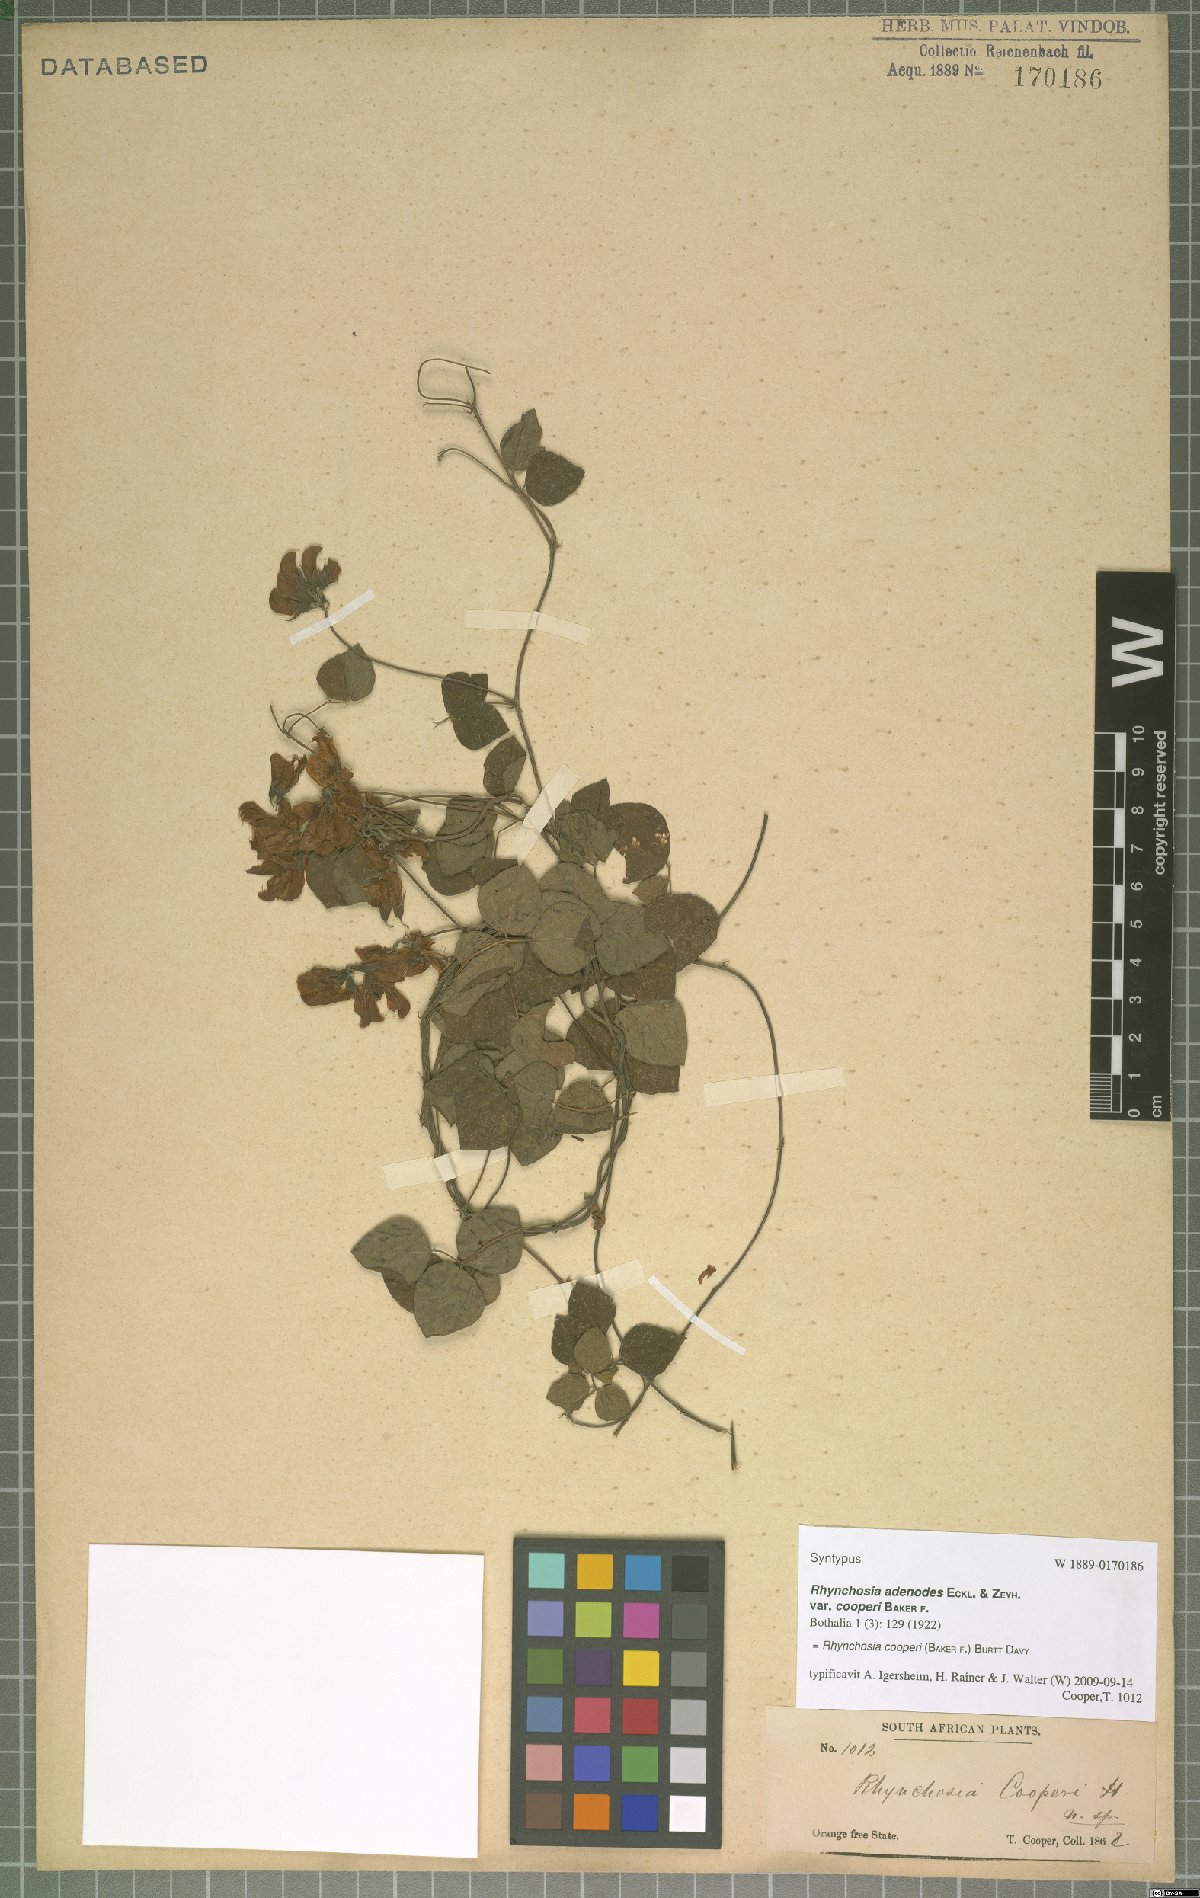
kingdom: Plantae
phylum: Tracheophyta
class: Magnoliopsida
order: Fabales
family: Fabaceae
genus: Rhynchosia
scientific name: Rhynchosia cooperi
